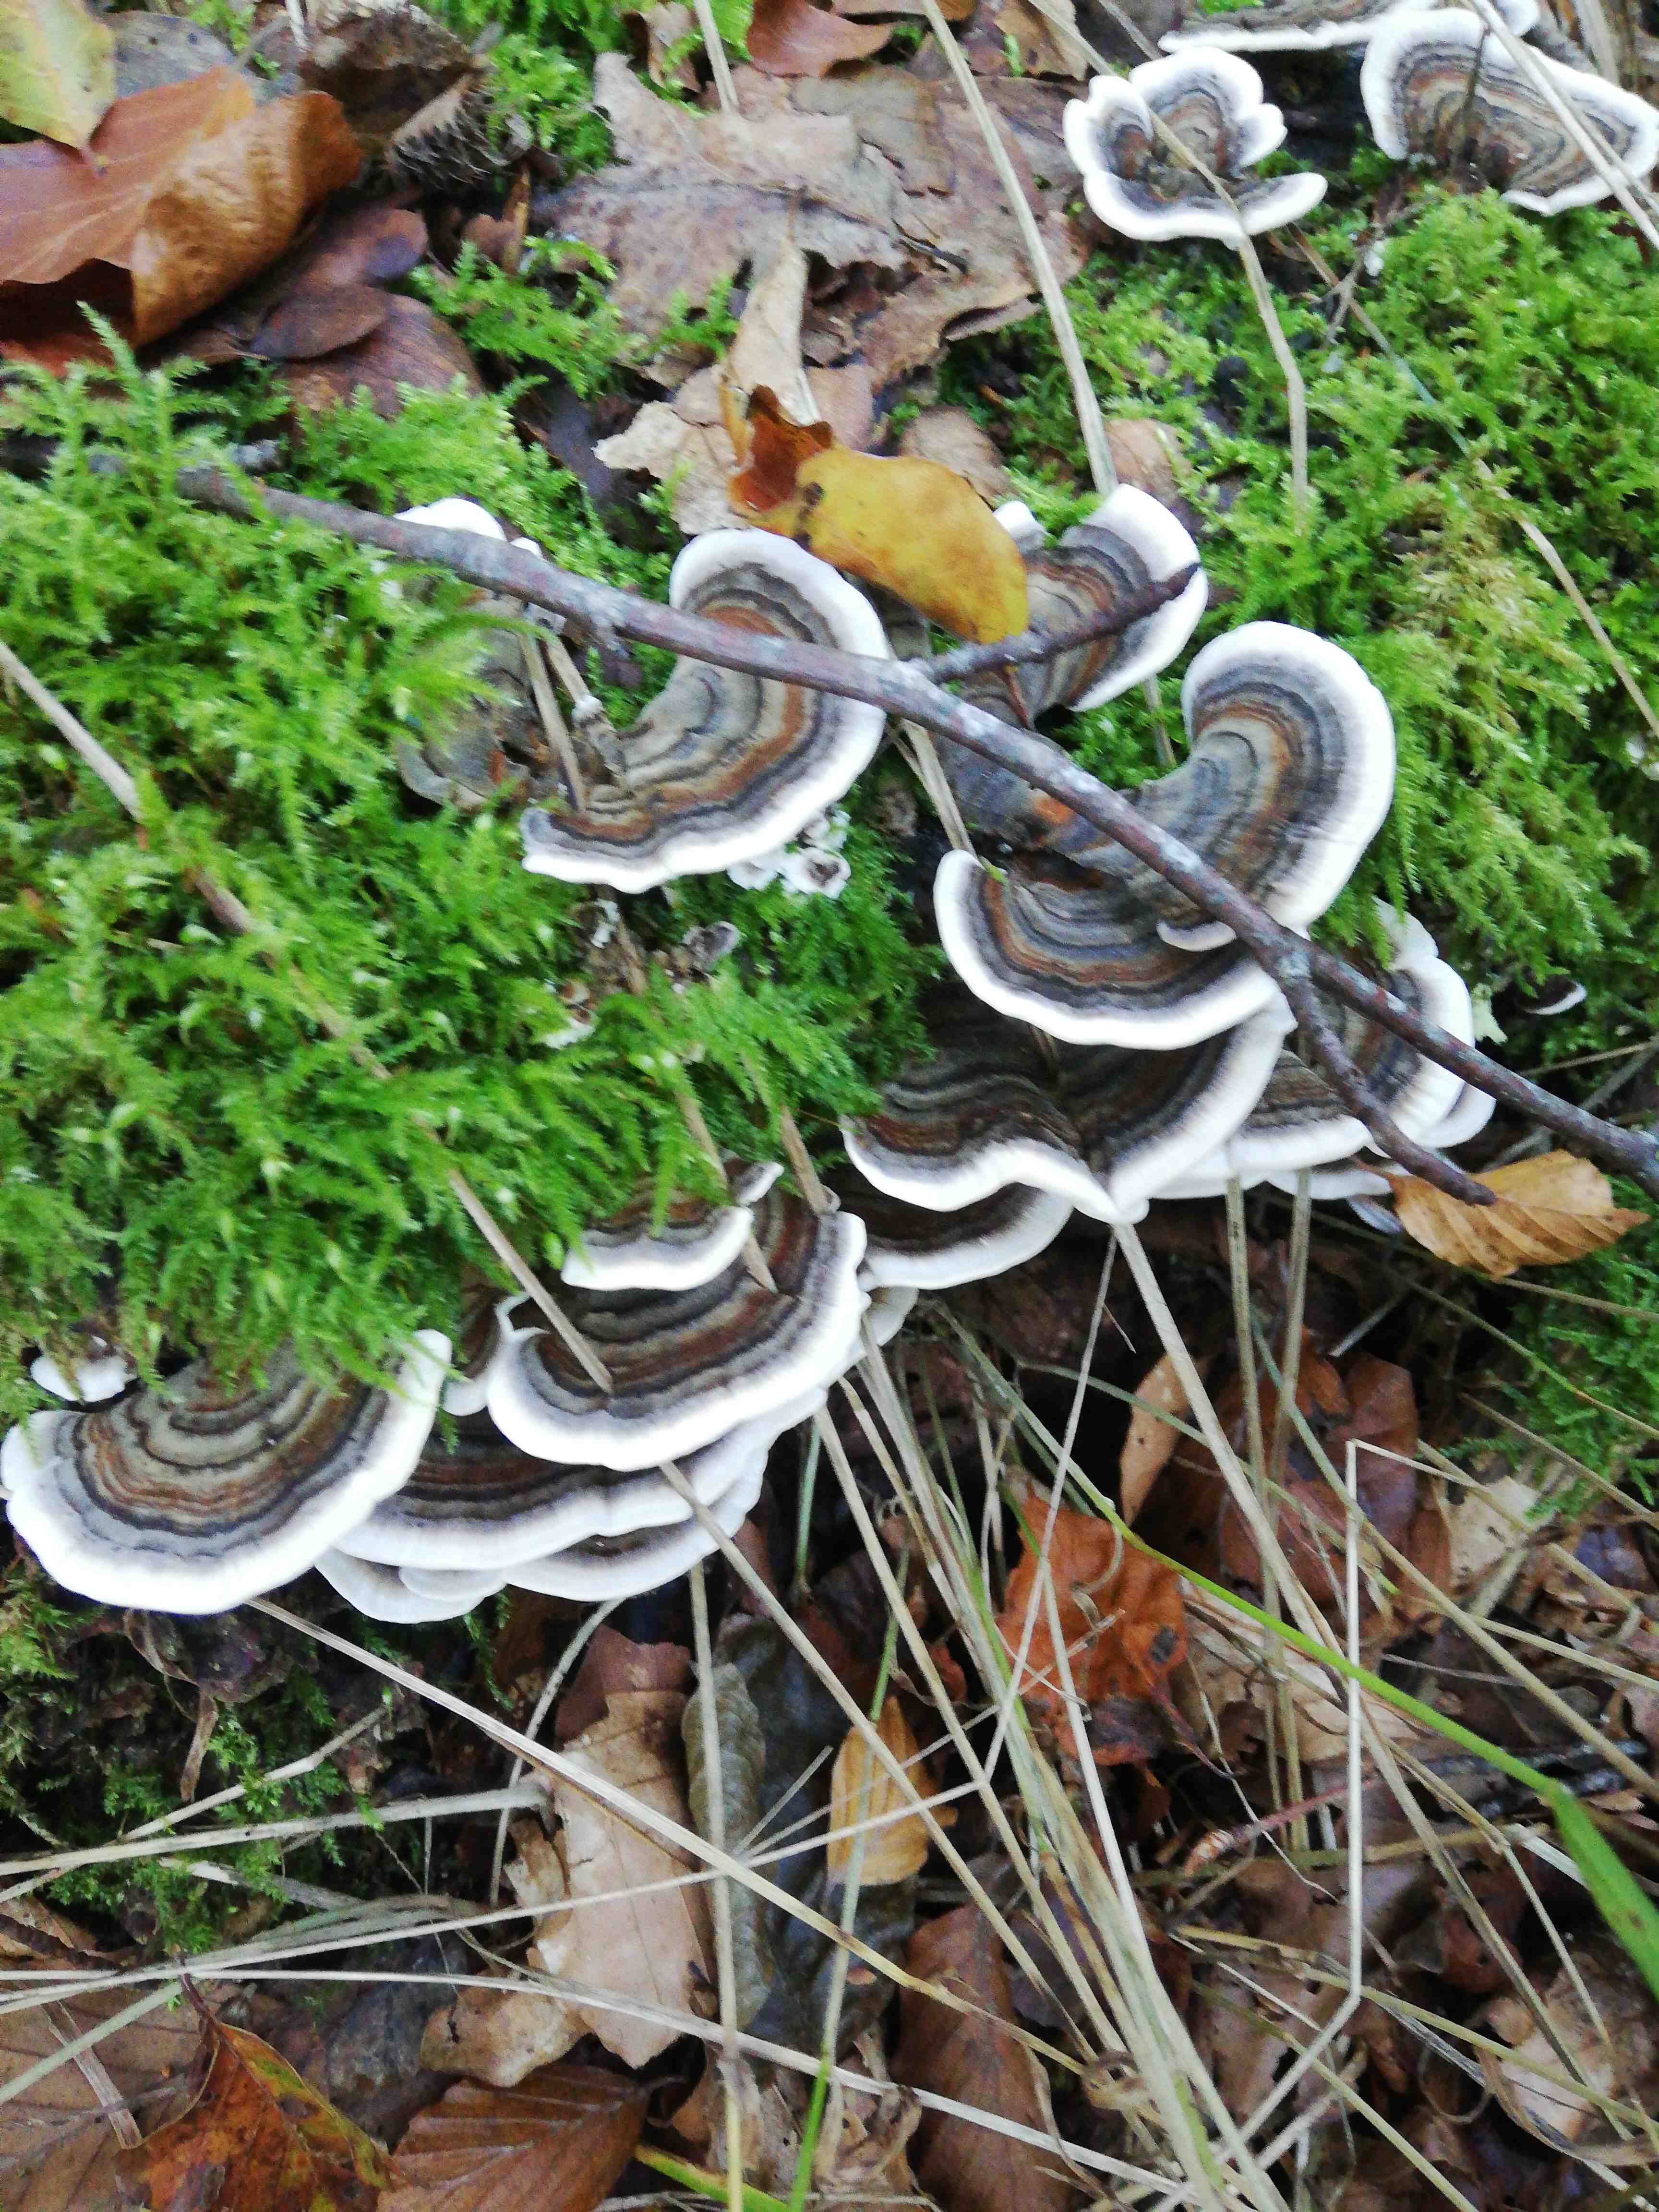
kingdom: Fungi
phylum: Basidiomycota
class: Agaricomycetes
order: Polyporales
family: Polyporaceae
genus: Trametes
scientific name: Trametes versicolor
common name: broget læderporesvamp
